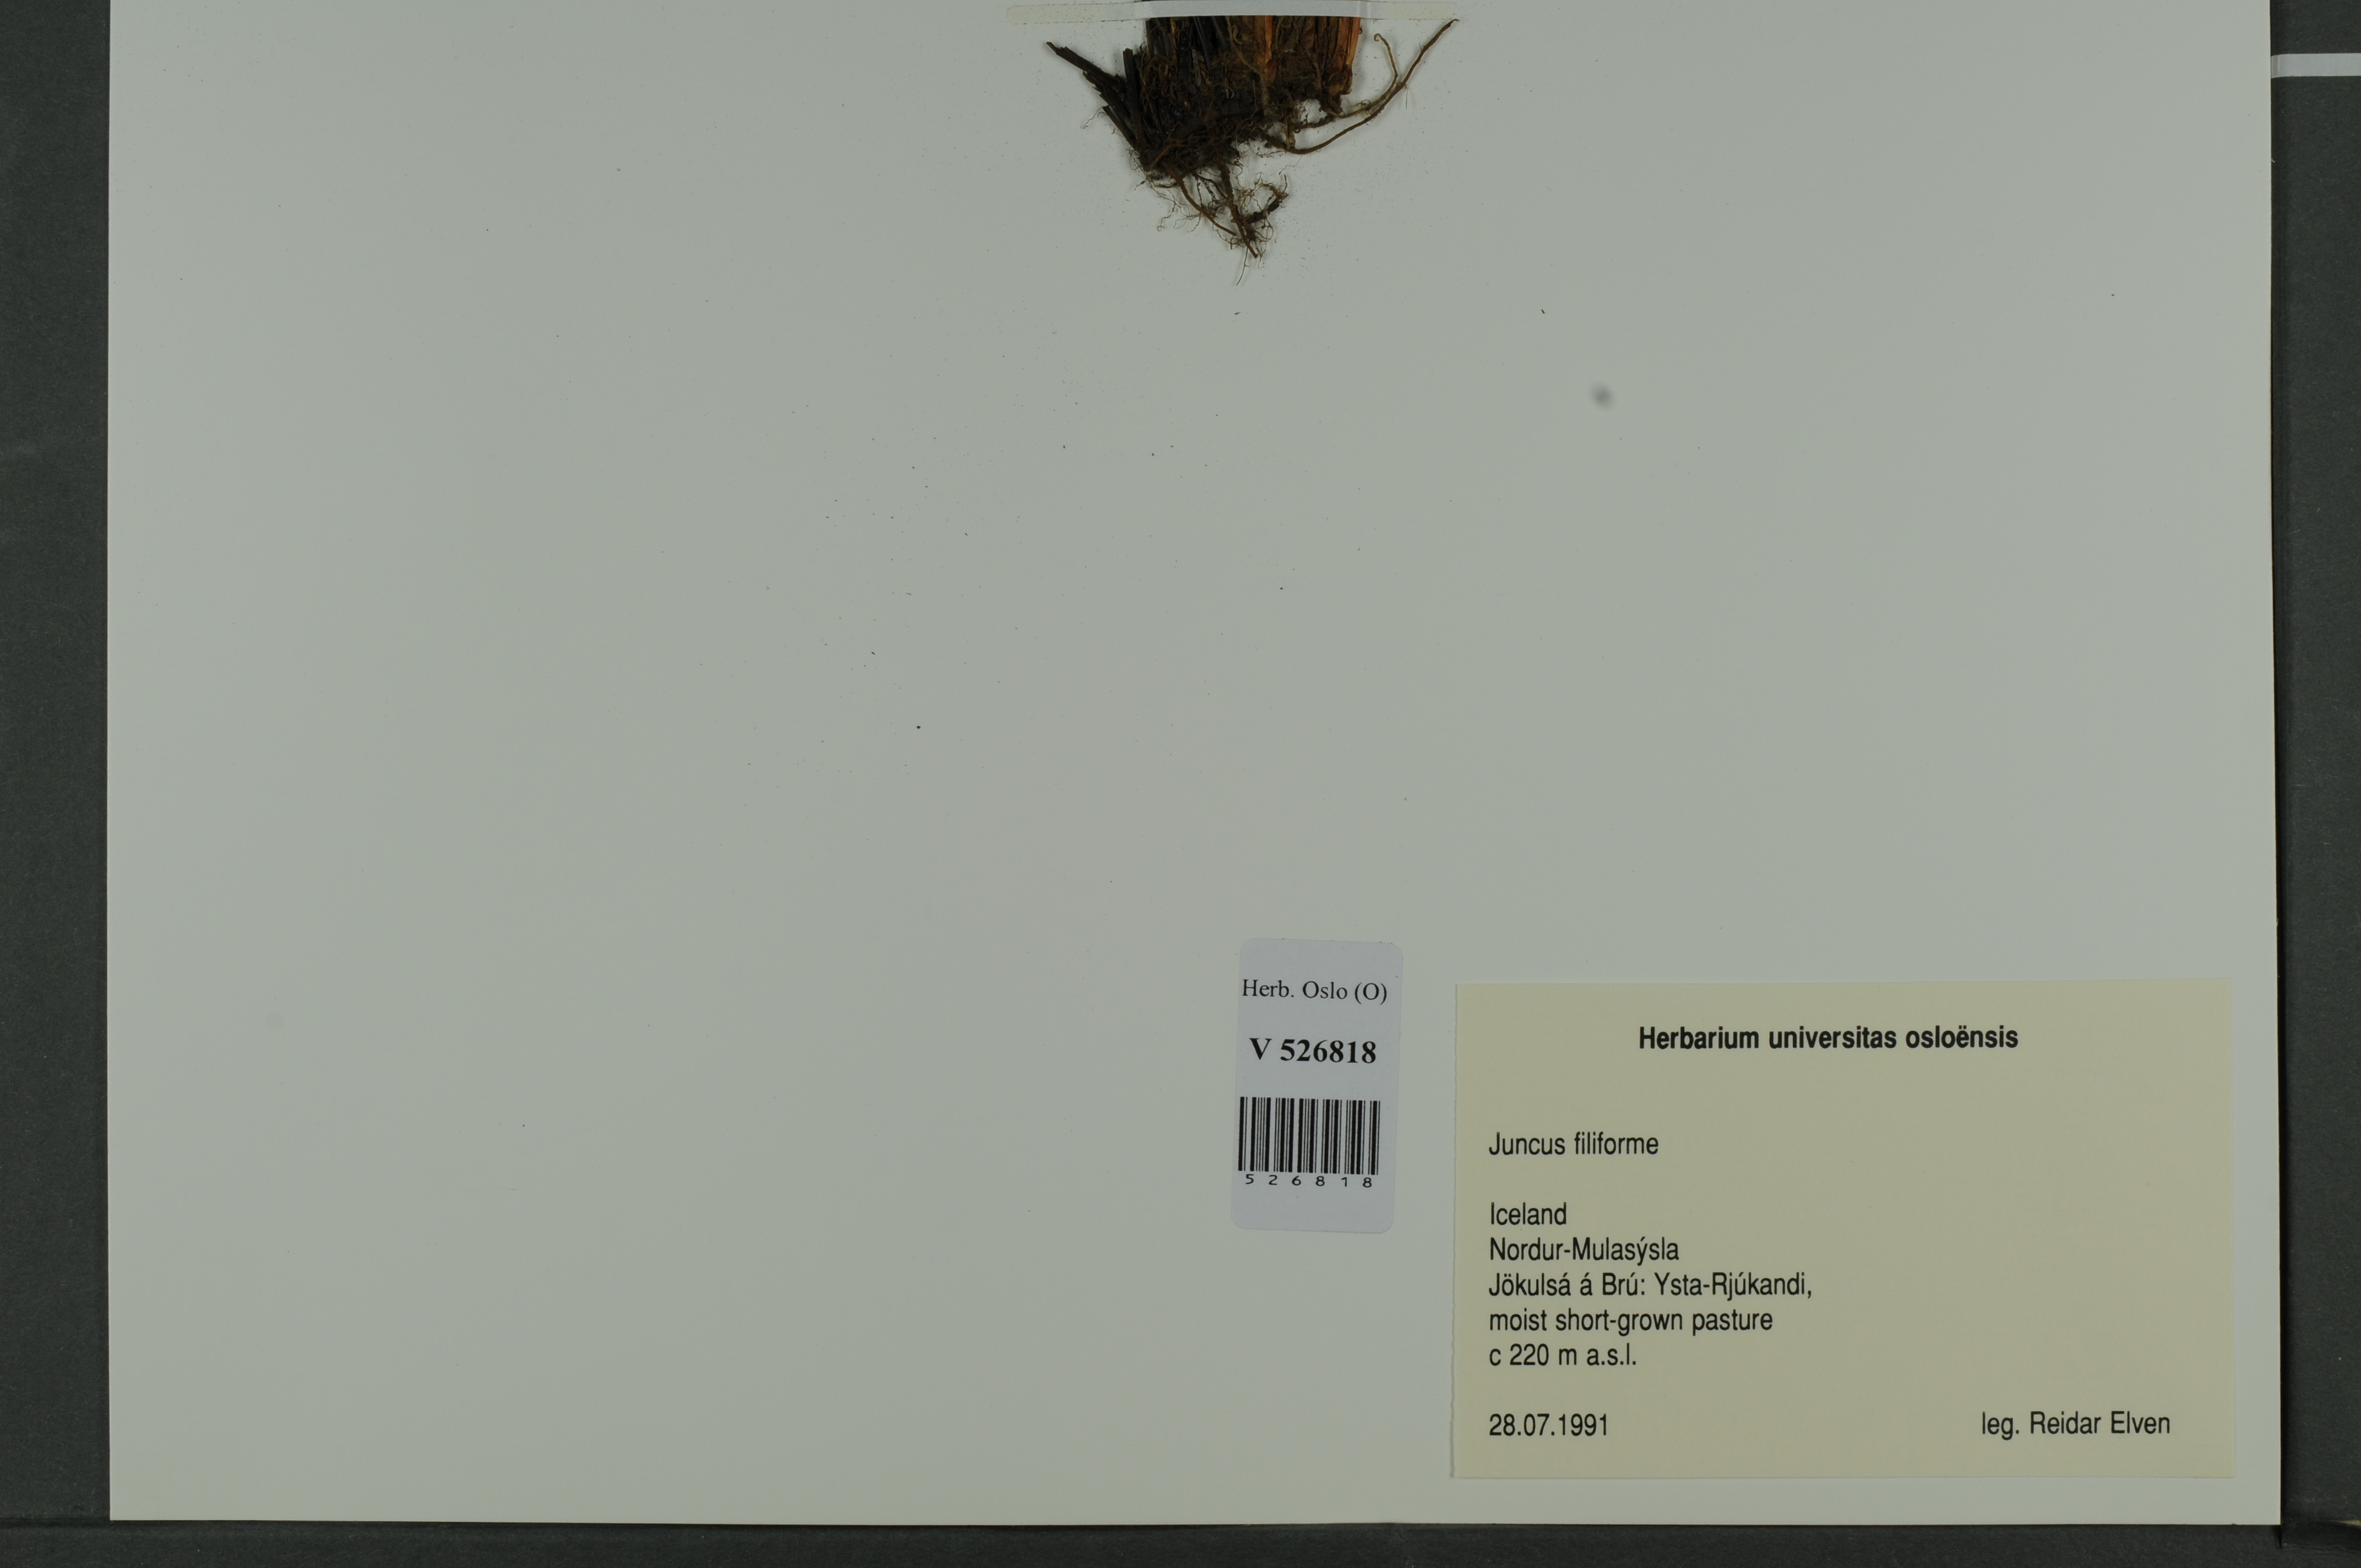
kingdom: Plantae
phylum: Tracheophyta
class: Liliopsida
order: Poales
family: Juncaceae
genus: Juncus
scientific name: Juncus filiformis
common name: Thread rush
